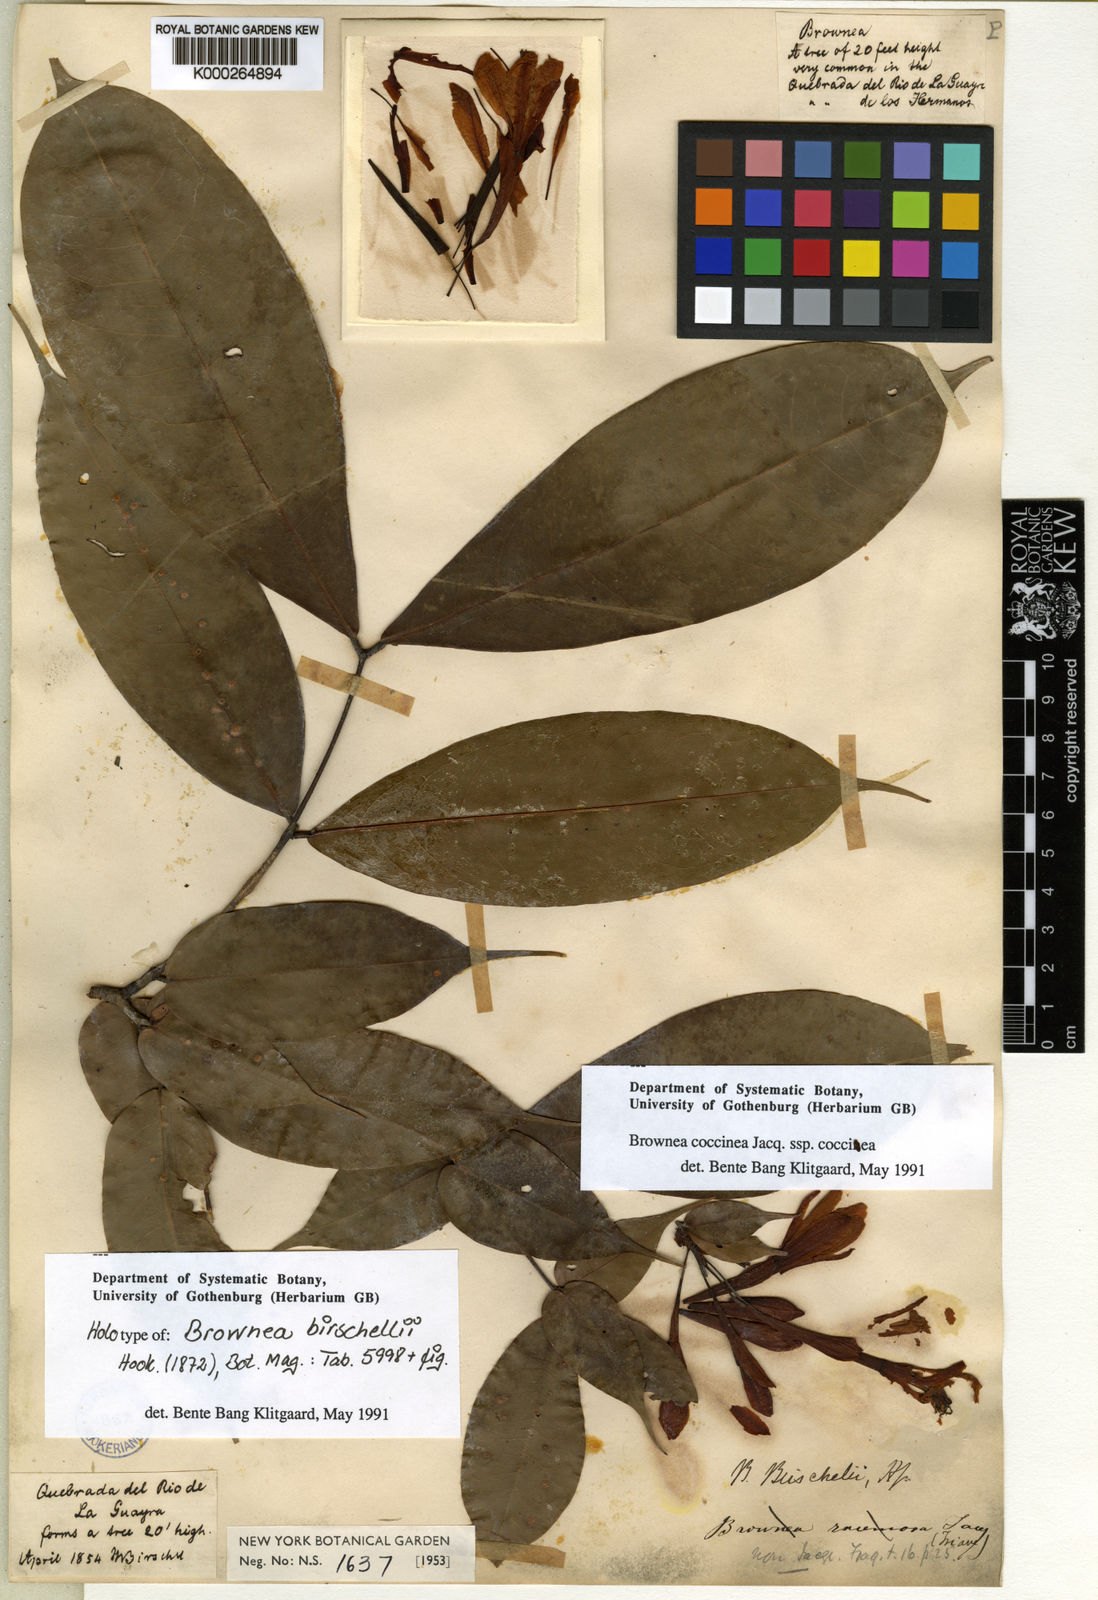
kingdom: Plantae
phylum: Tracheophyta
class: Magnoliopsida
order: Fabales
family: Fabaceae
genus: Brownea
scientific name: Brownea birschellii
